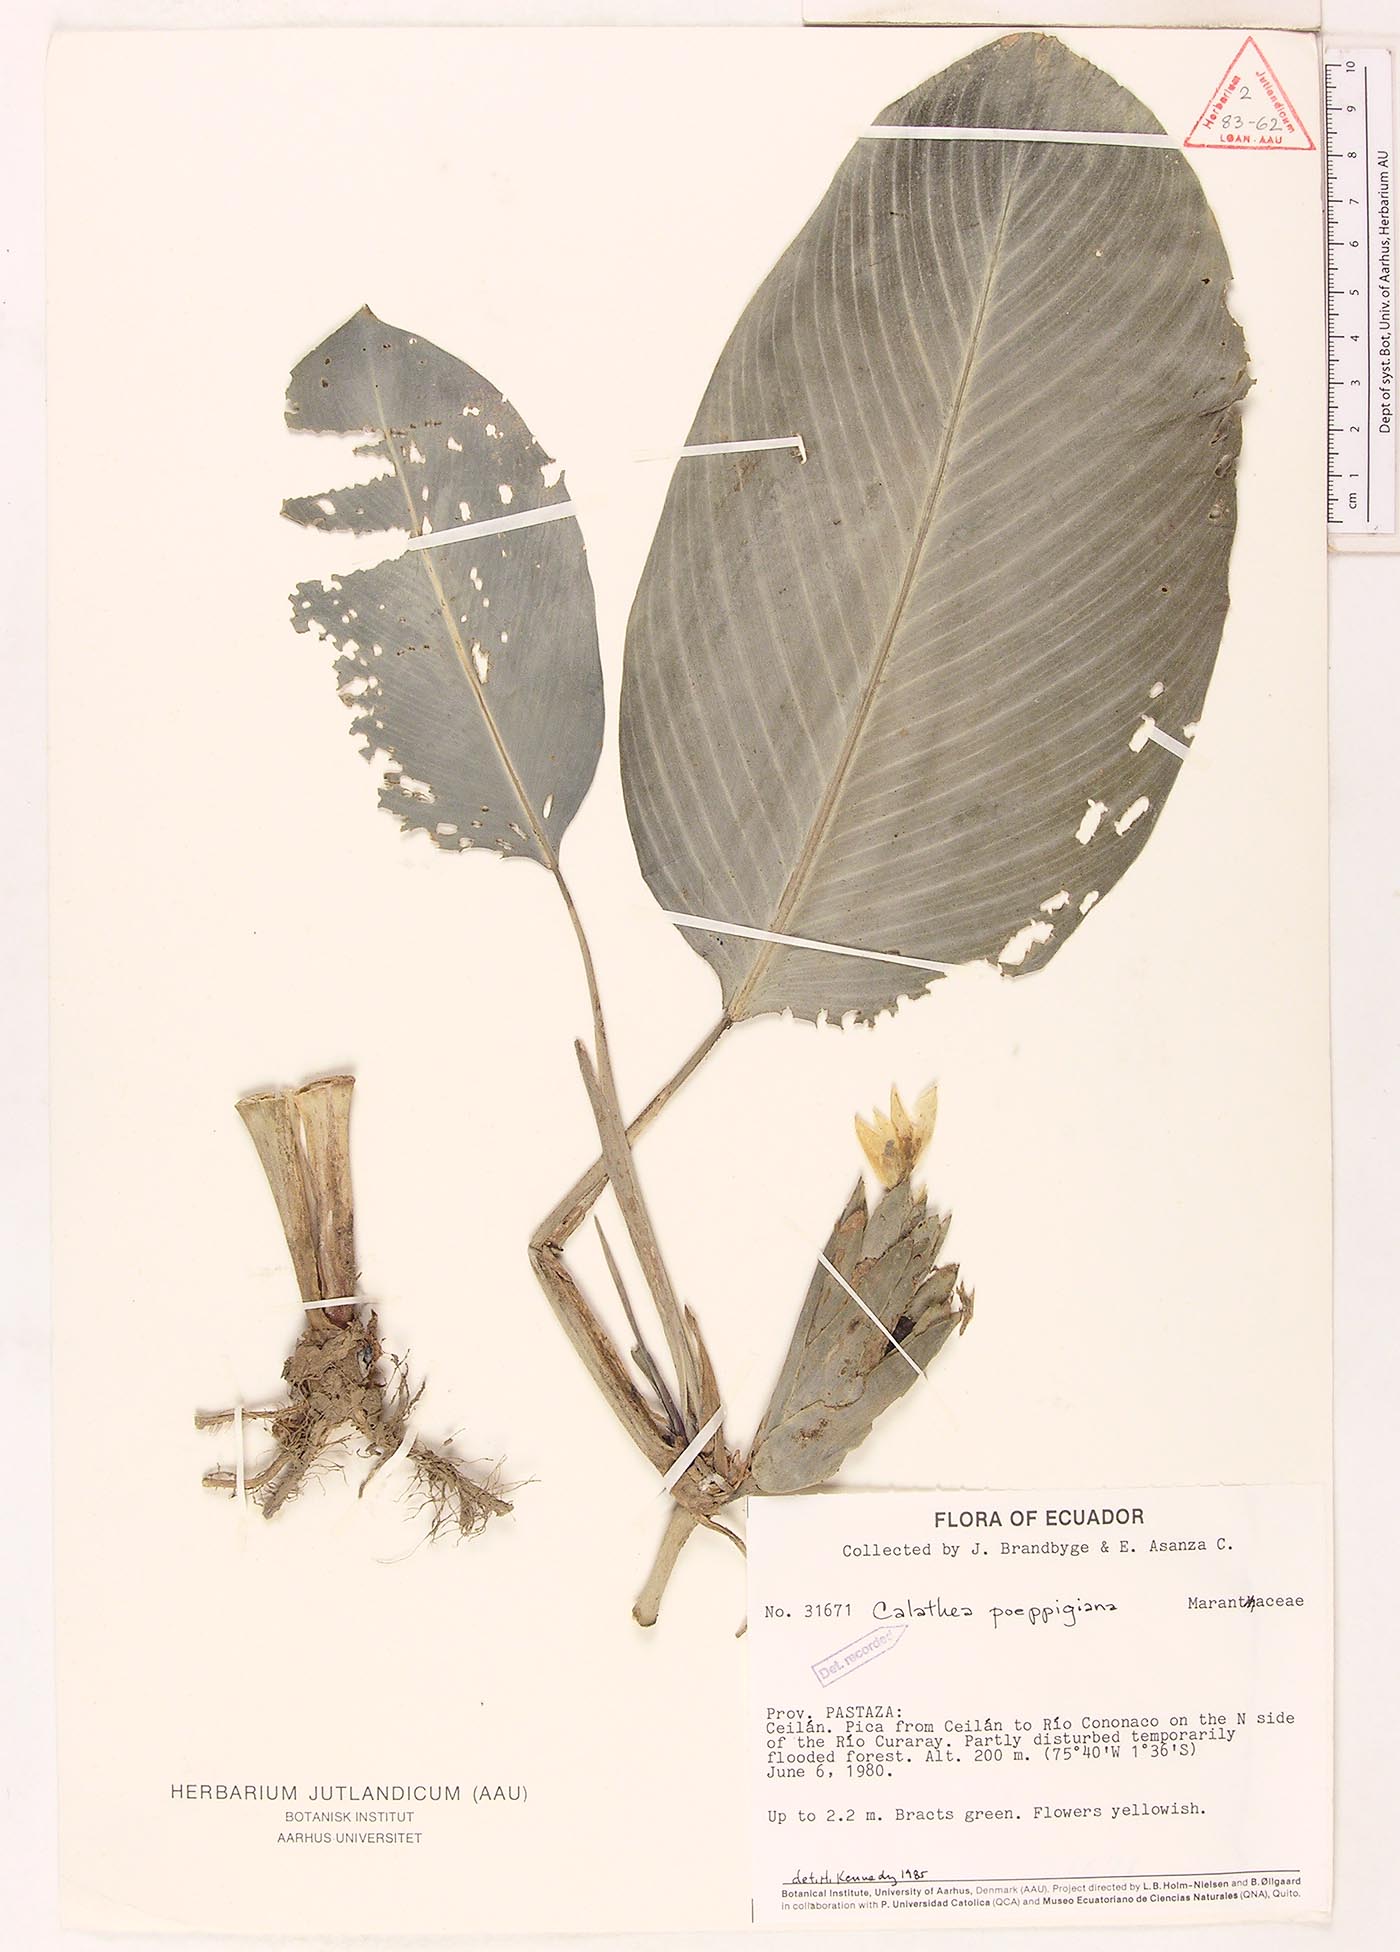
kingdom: Plantae
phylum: Tracheophyta
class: Liliopsida
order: Zingiberales
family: Marantaceae
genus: Goeppertia
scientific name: Goeppertia poeppigiana
